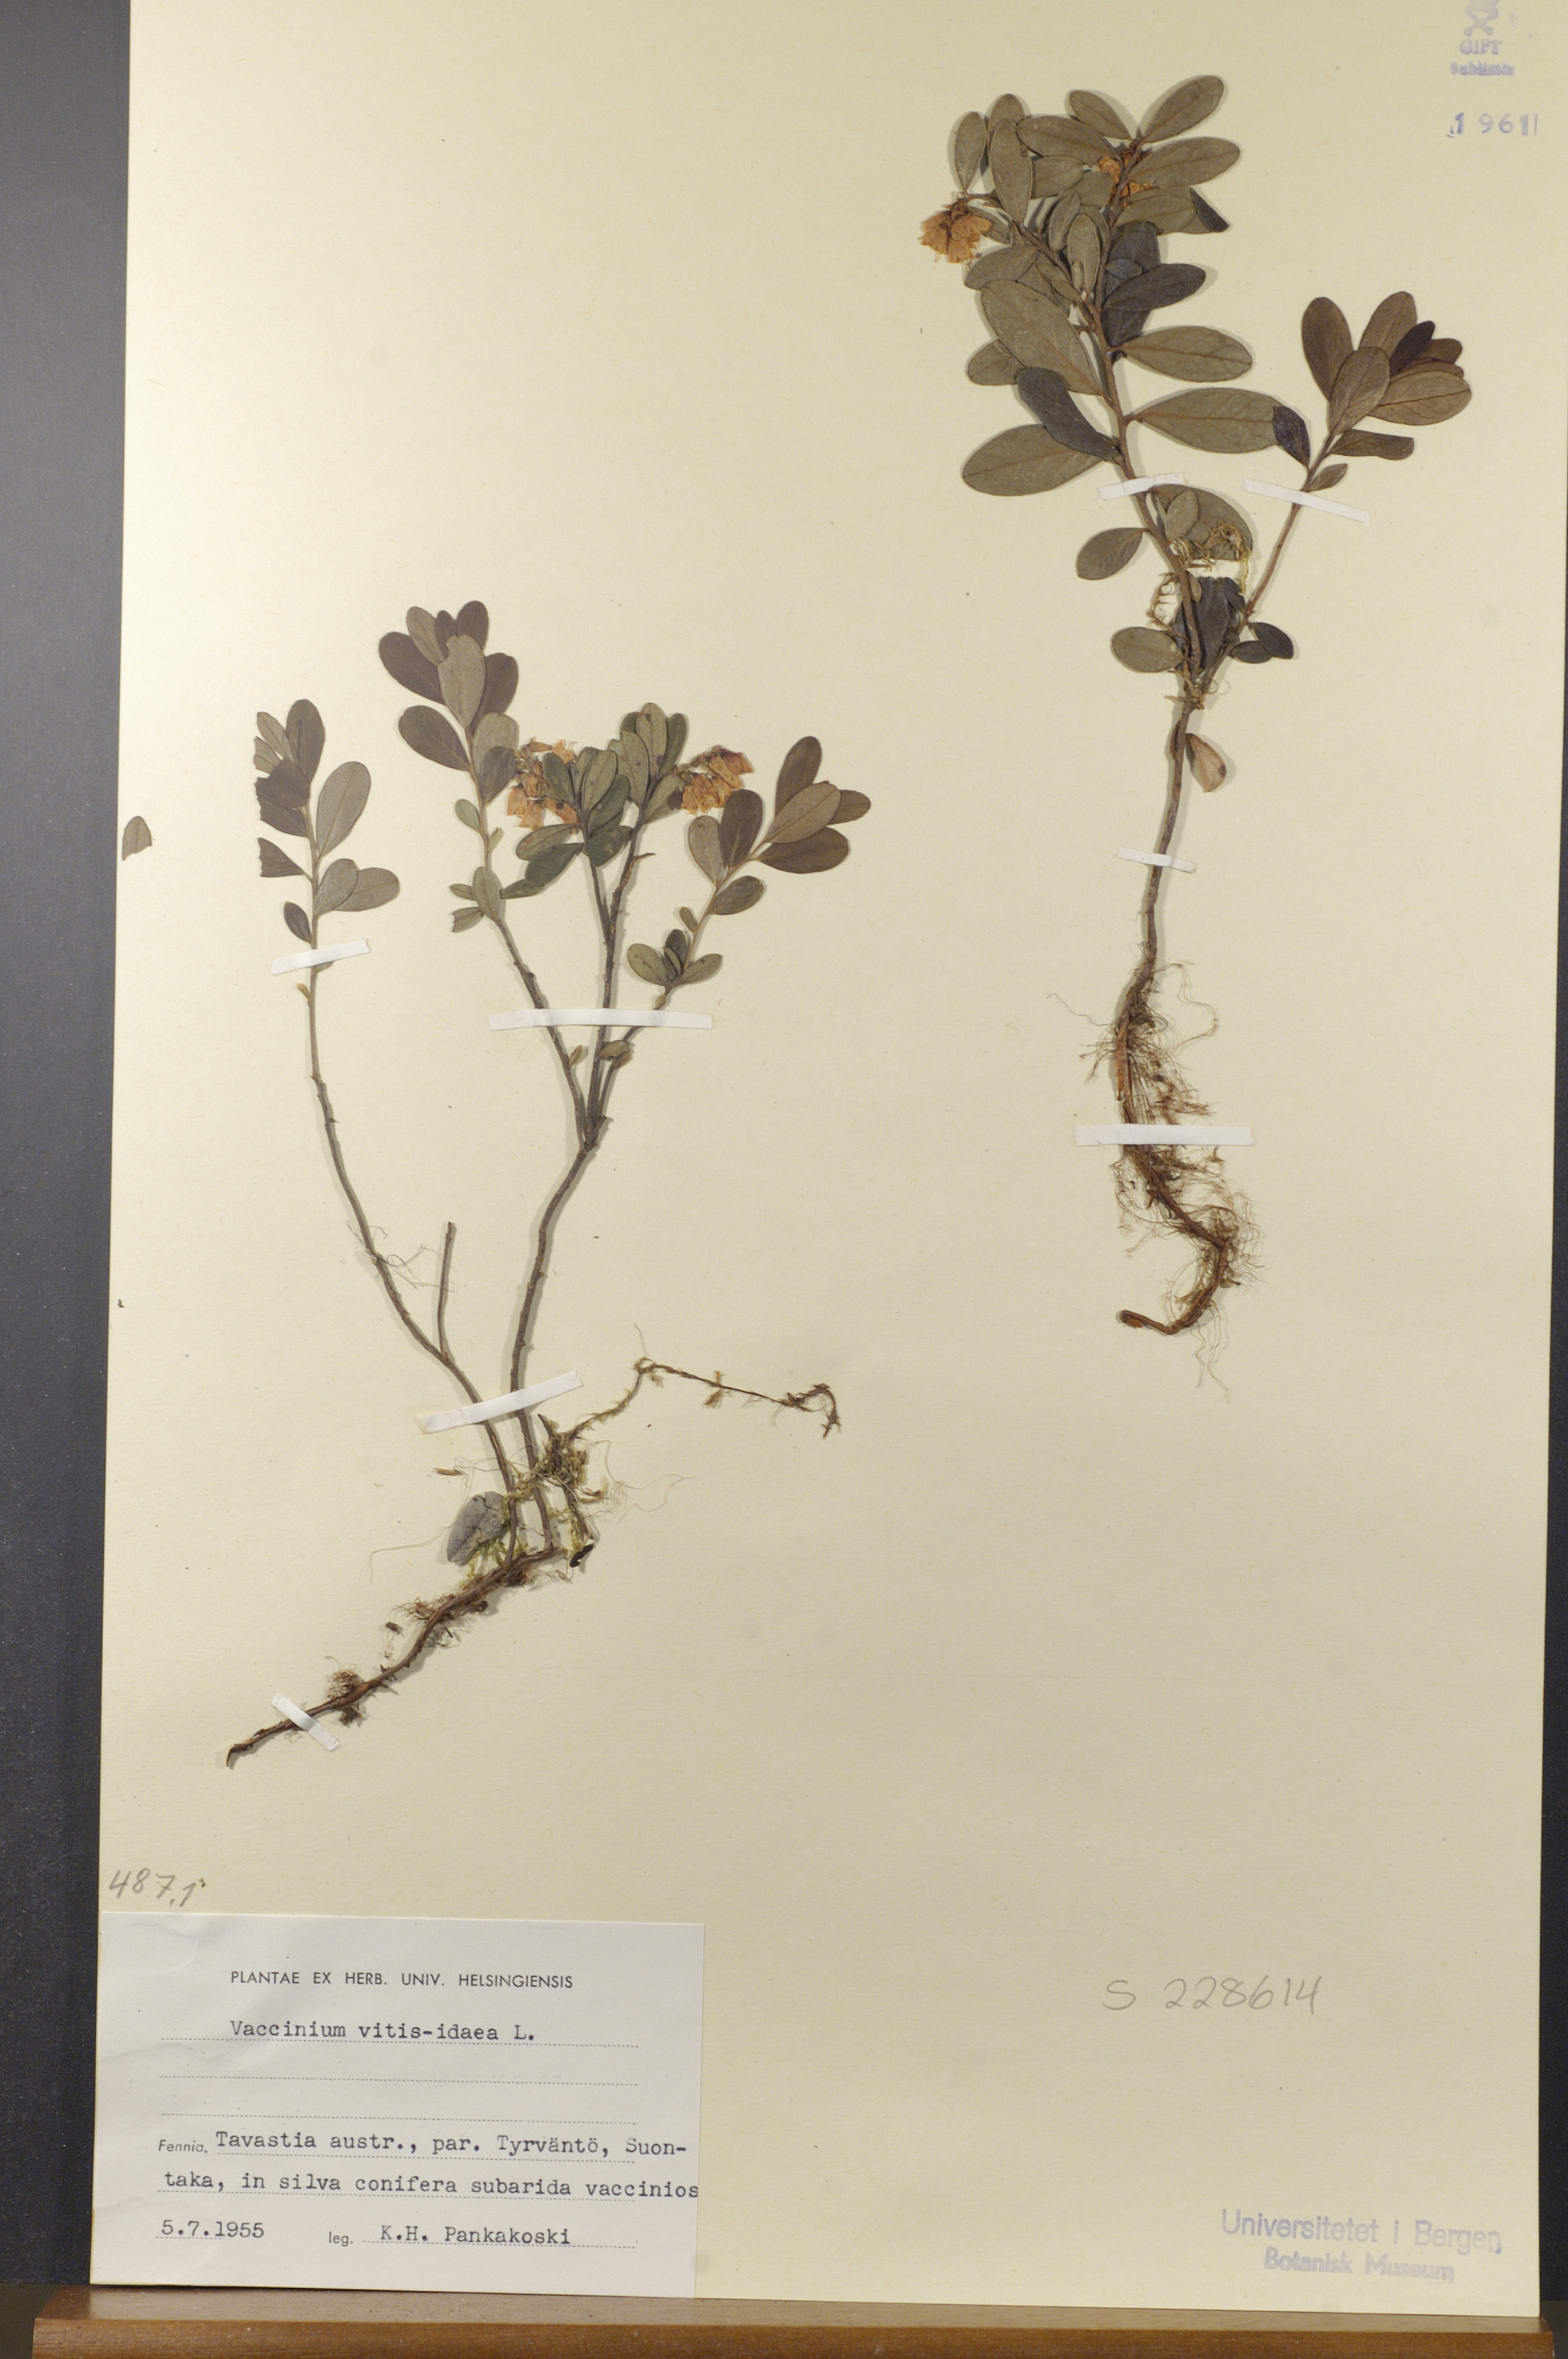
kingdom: Plantae
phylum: Tracheophyta
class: Magnoliopsida
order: Ericales
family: Ericaceae
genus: Vaccinium
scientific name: Vaccinium vitis-idaea
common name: Cowberry
